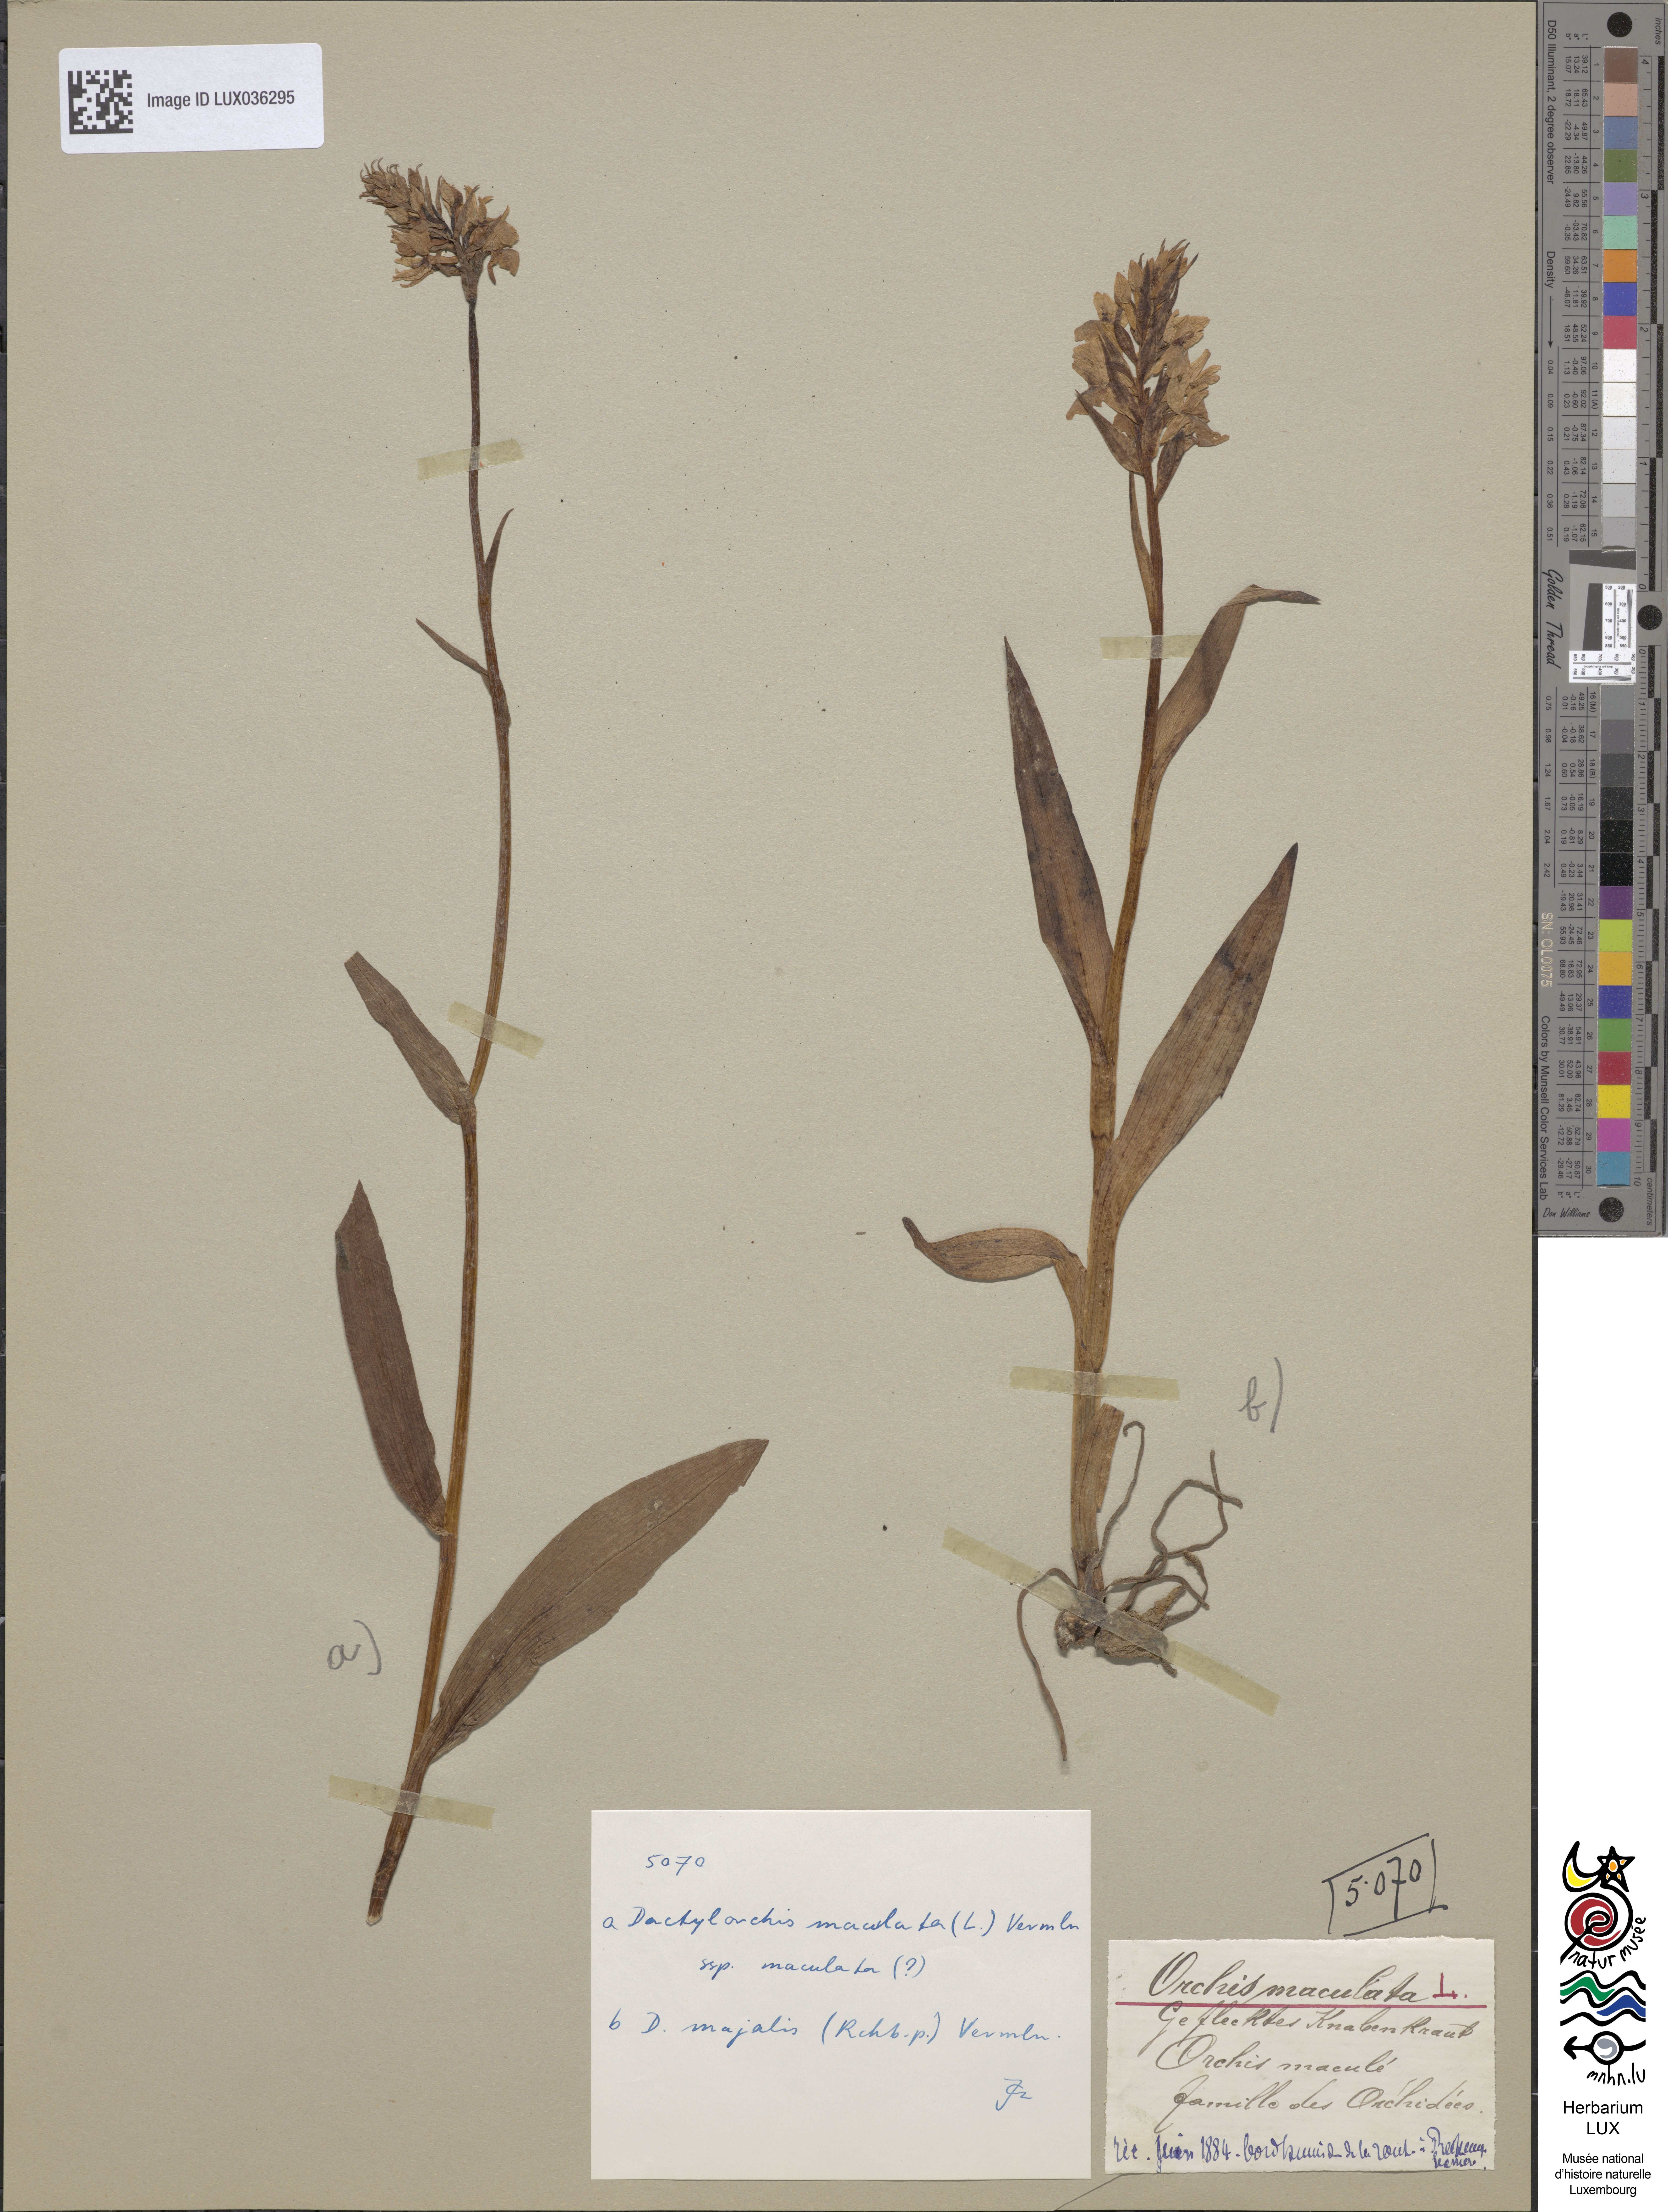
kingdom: Plantae
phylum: Tracheophyta
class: Liliopsida
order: Asparagales
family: Orchidaceae
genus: Dactylorhiza
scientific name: Dactylorhiza maculata
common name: Heath spotted-orchid
